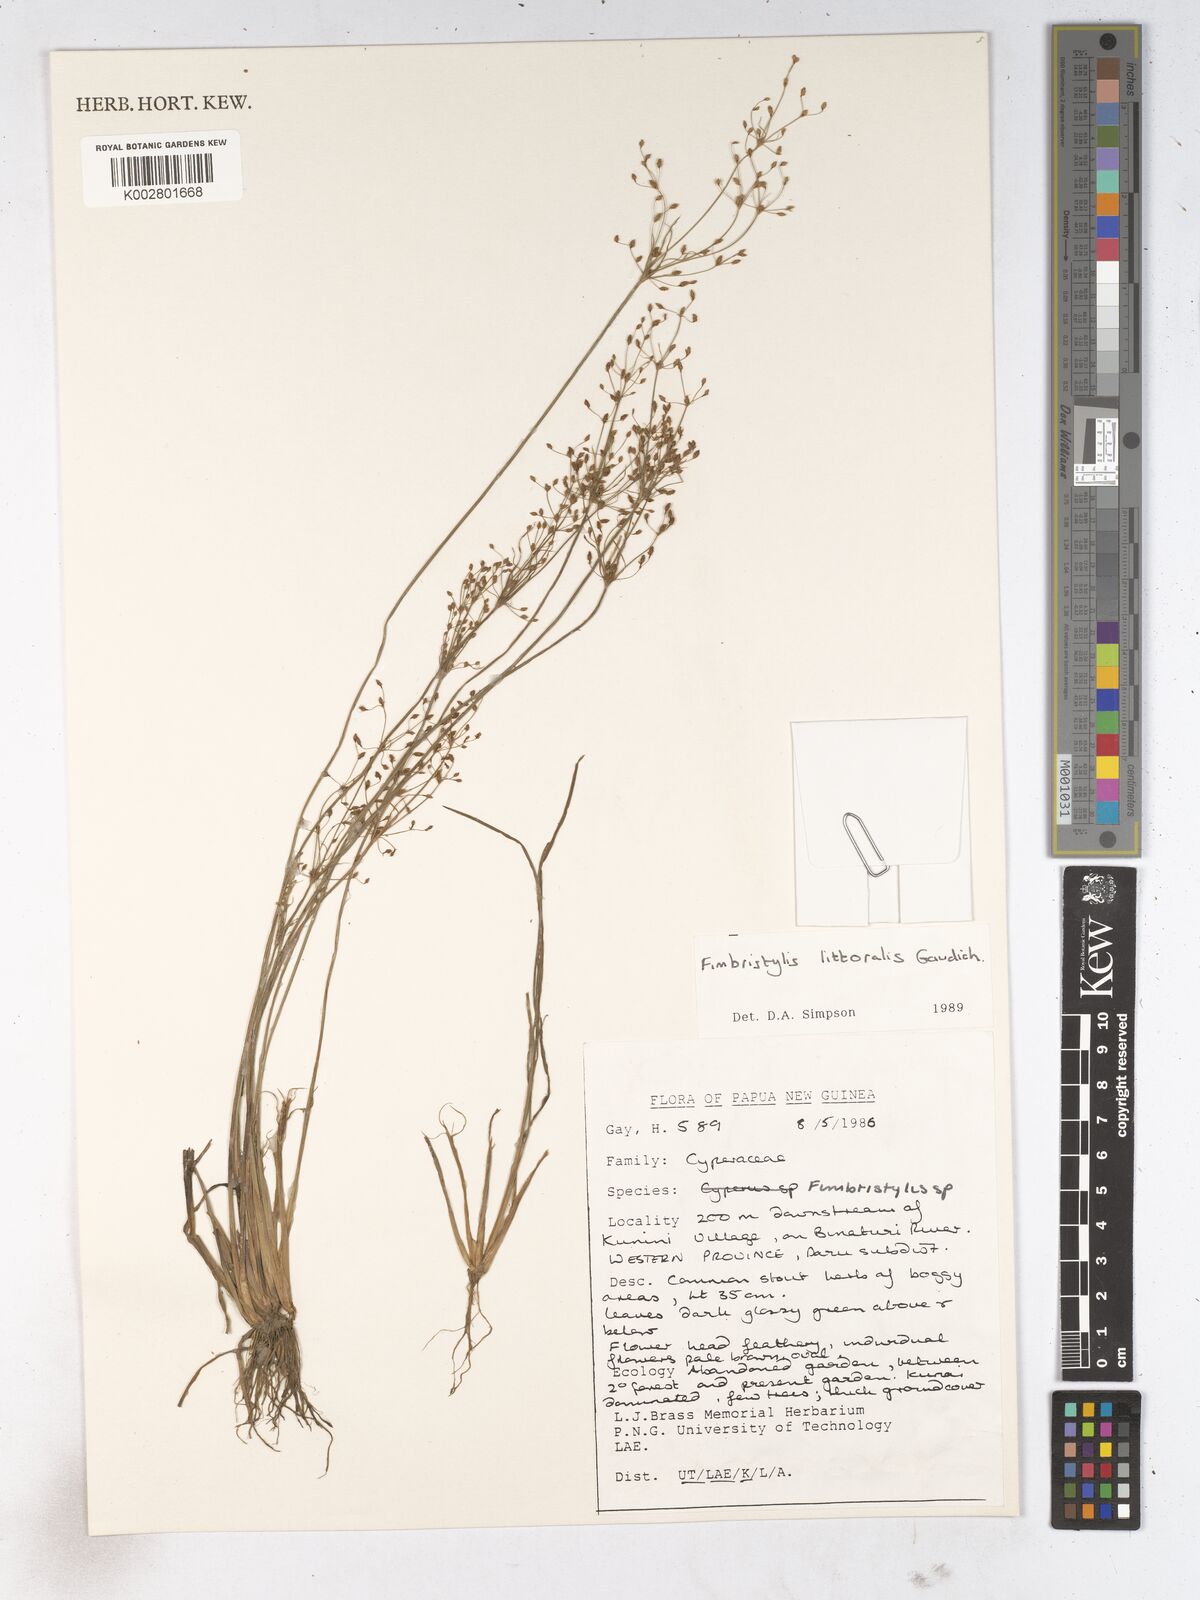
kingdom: Plantae
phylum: Tracheophyta
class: Liliopsida
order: Poales
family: Cyperaceae
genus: Fimbristylis
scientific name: Fimbristylis littoralis
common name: Fimbry
